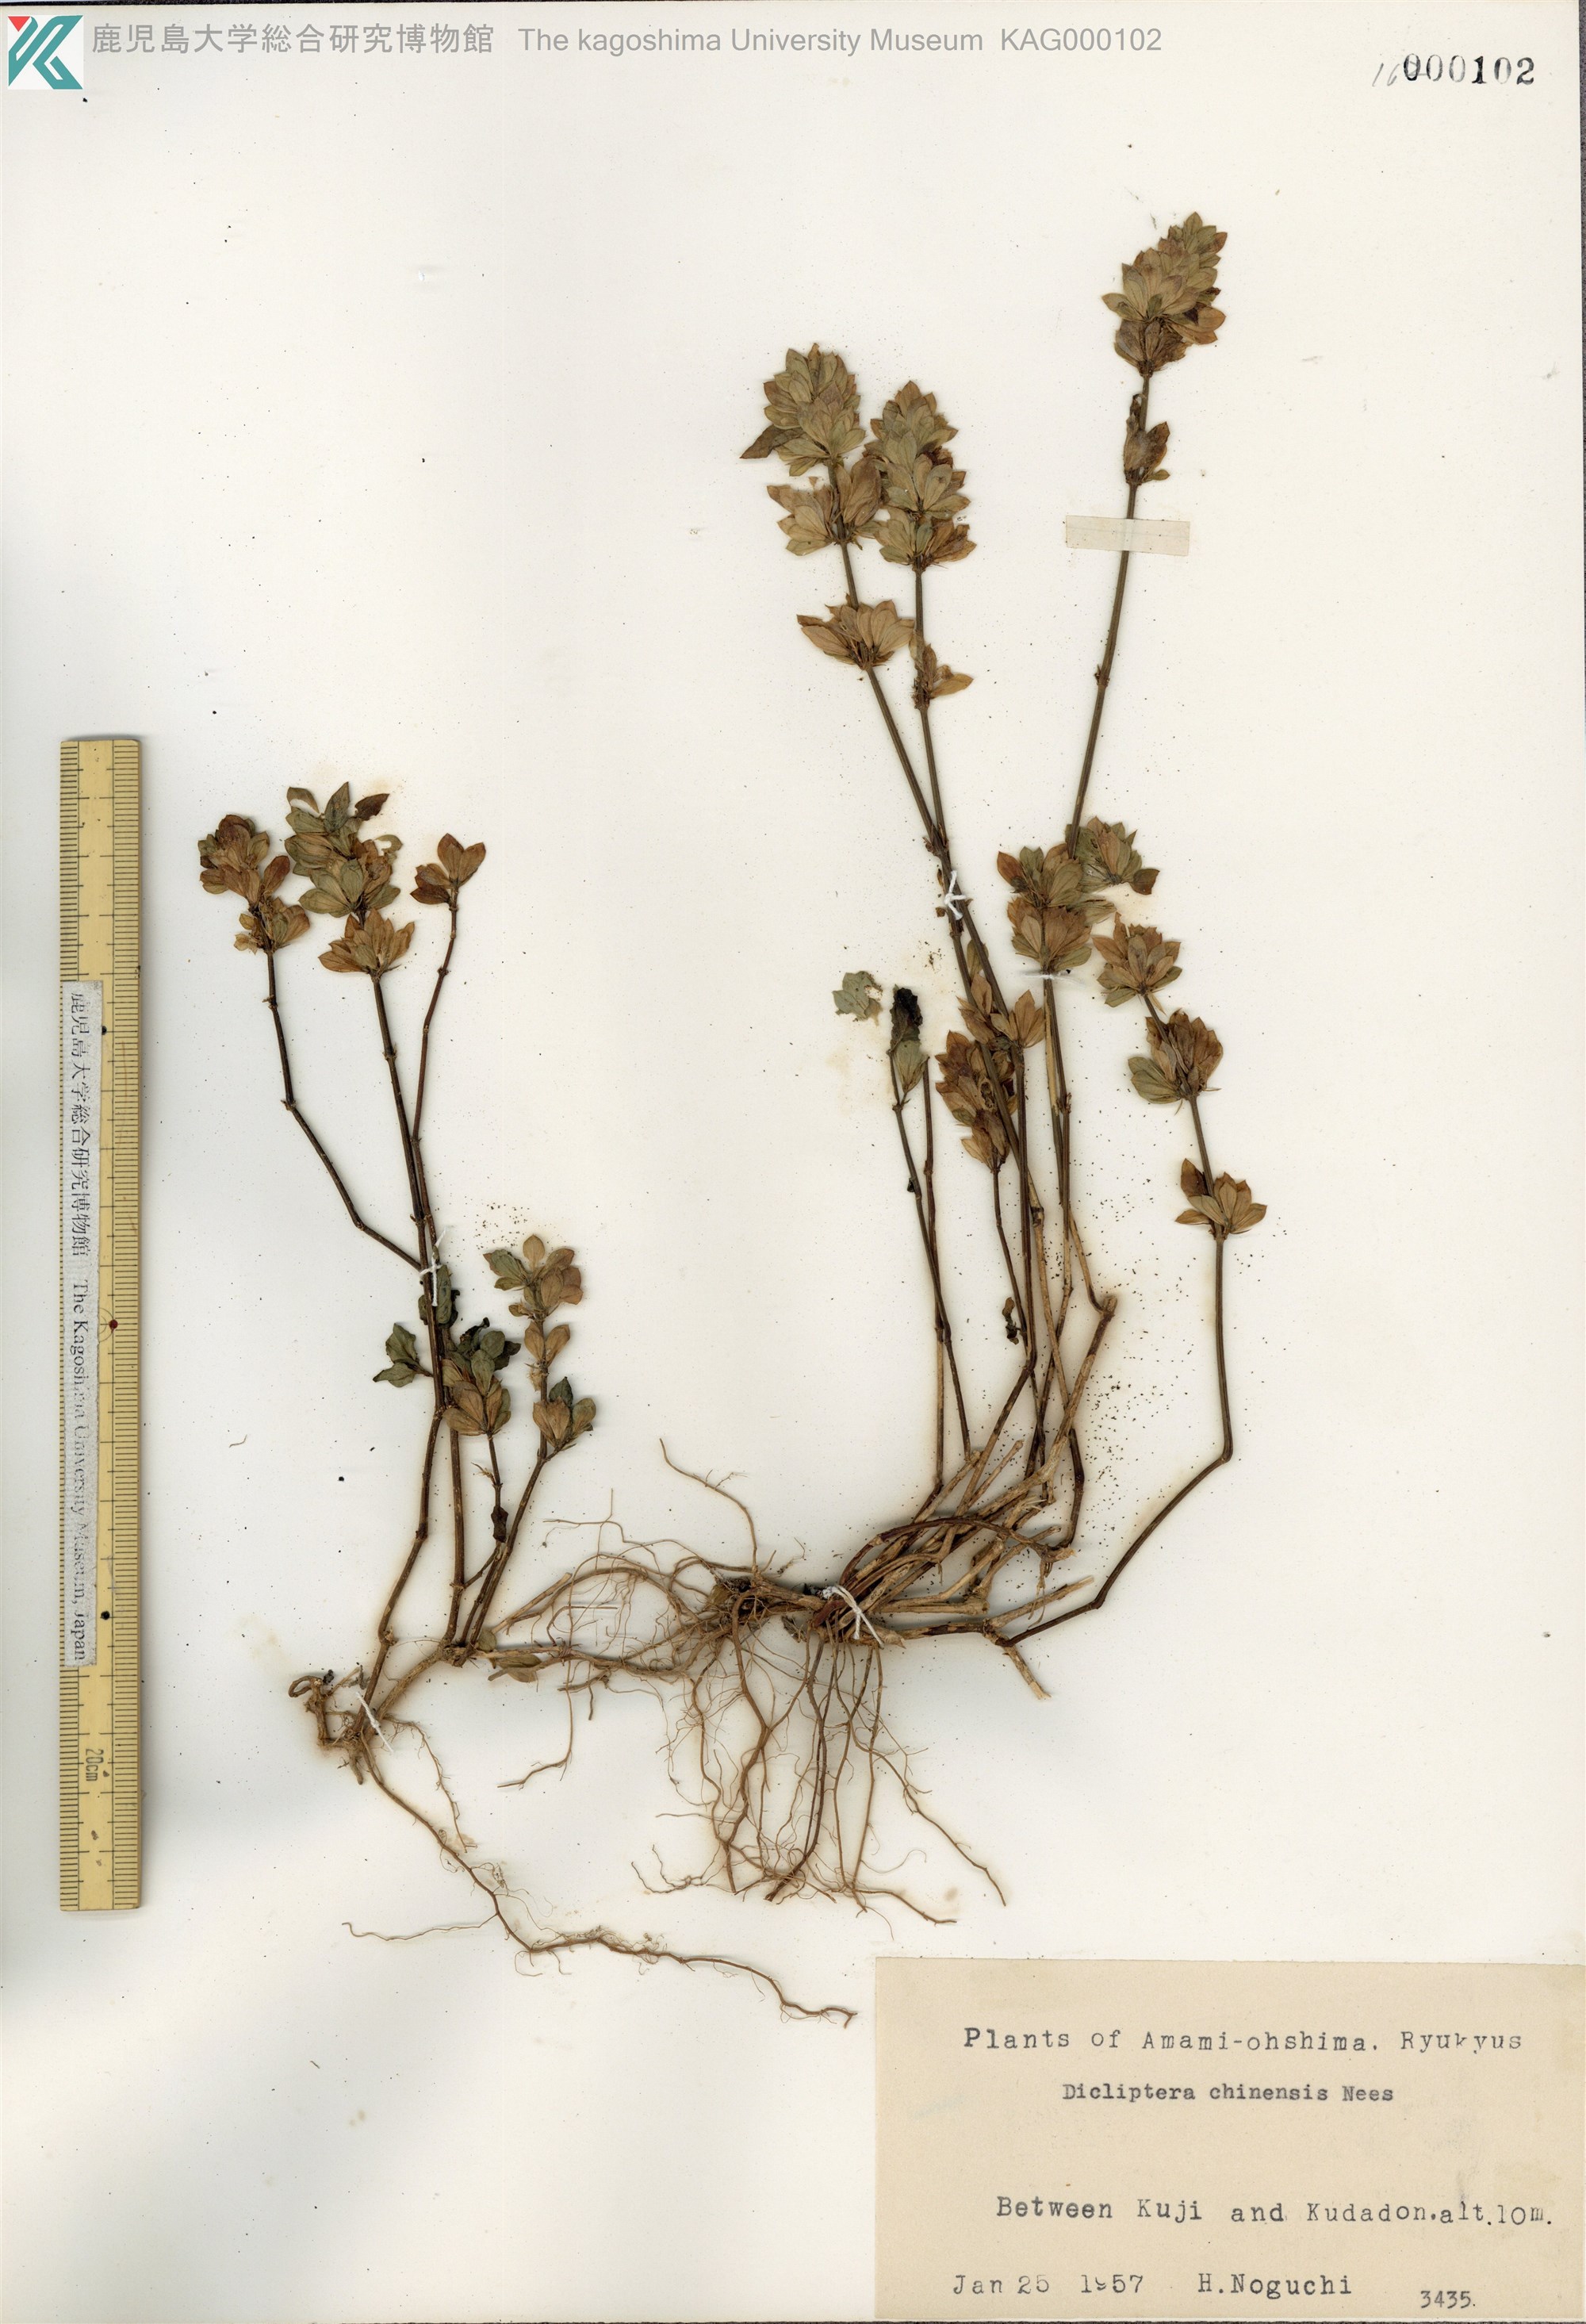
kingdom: Plantae
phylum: Tracheophyta
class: Magnoliopsida
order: Lamiales
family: Acanthaceae
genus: Dicliptera
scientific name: Dicliptera chinensis
